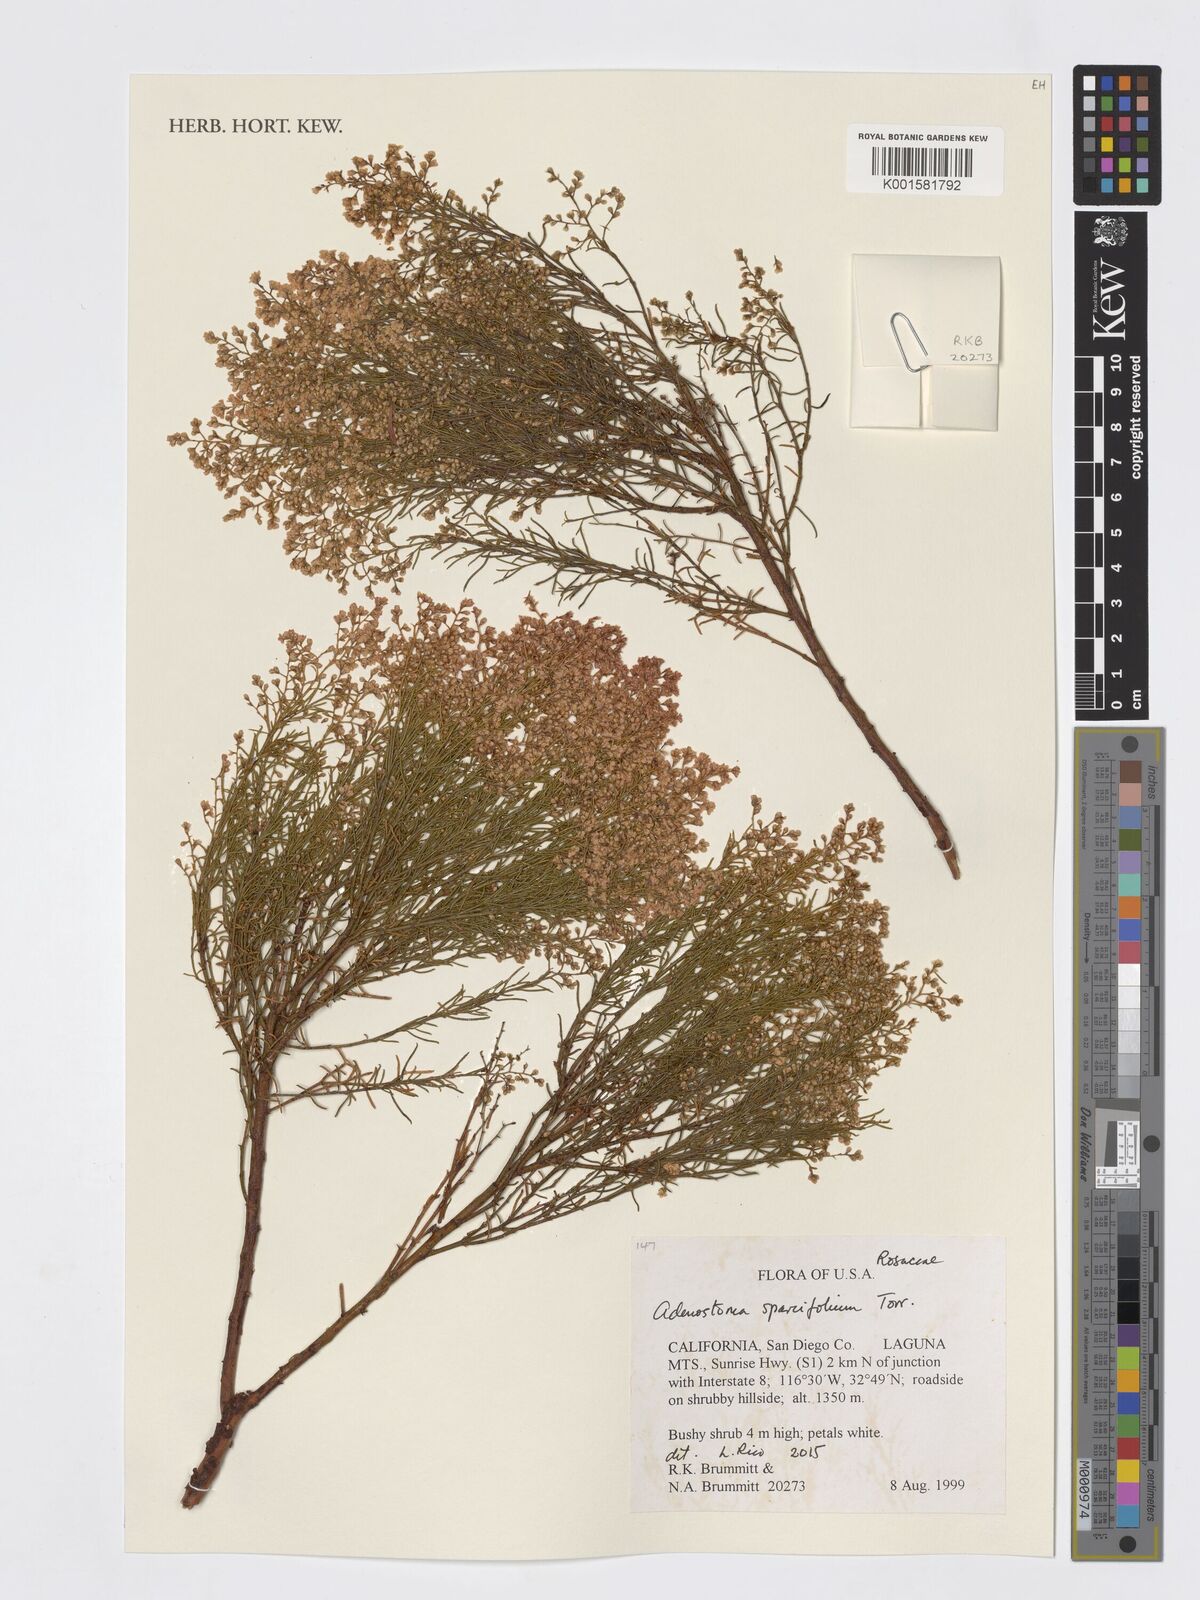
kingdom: Plantae
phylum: Tracheophyta
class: Magnoliopsida
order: Rosales
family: Rosaceae
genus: Adenostoma
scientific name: Adenostoma sparsifolium
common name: Red shank
